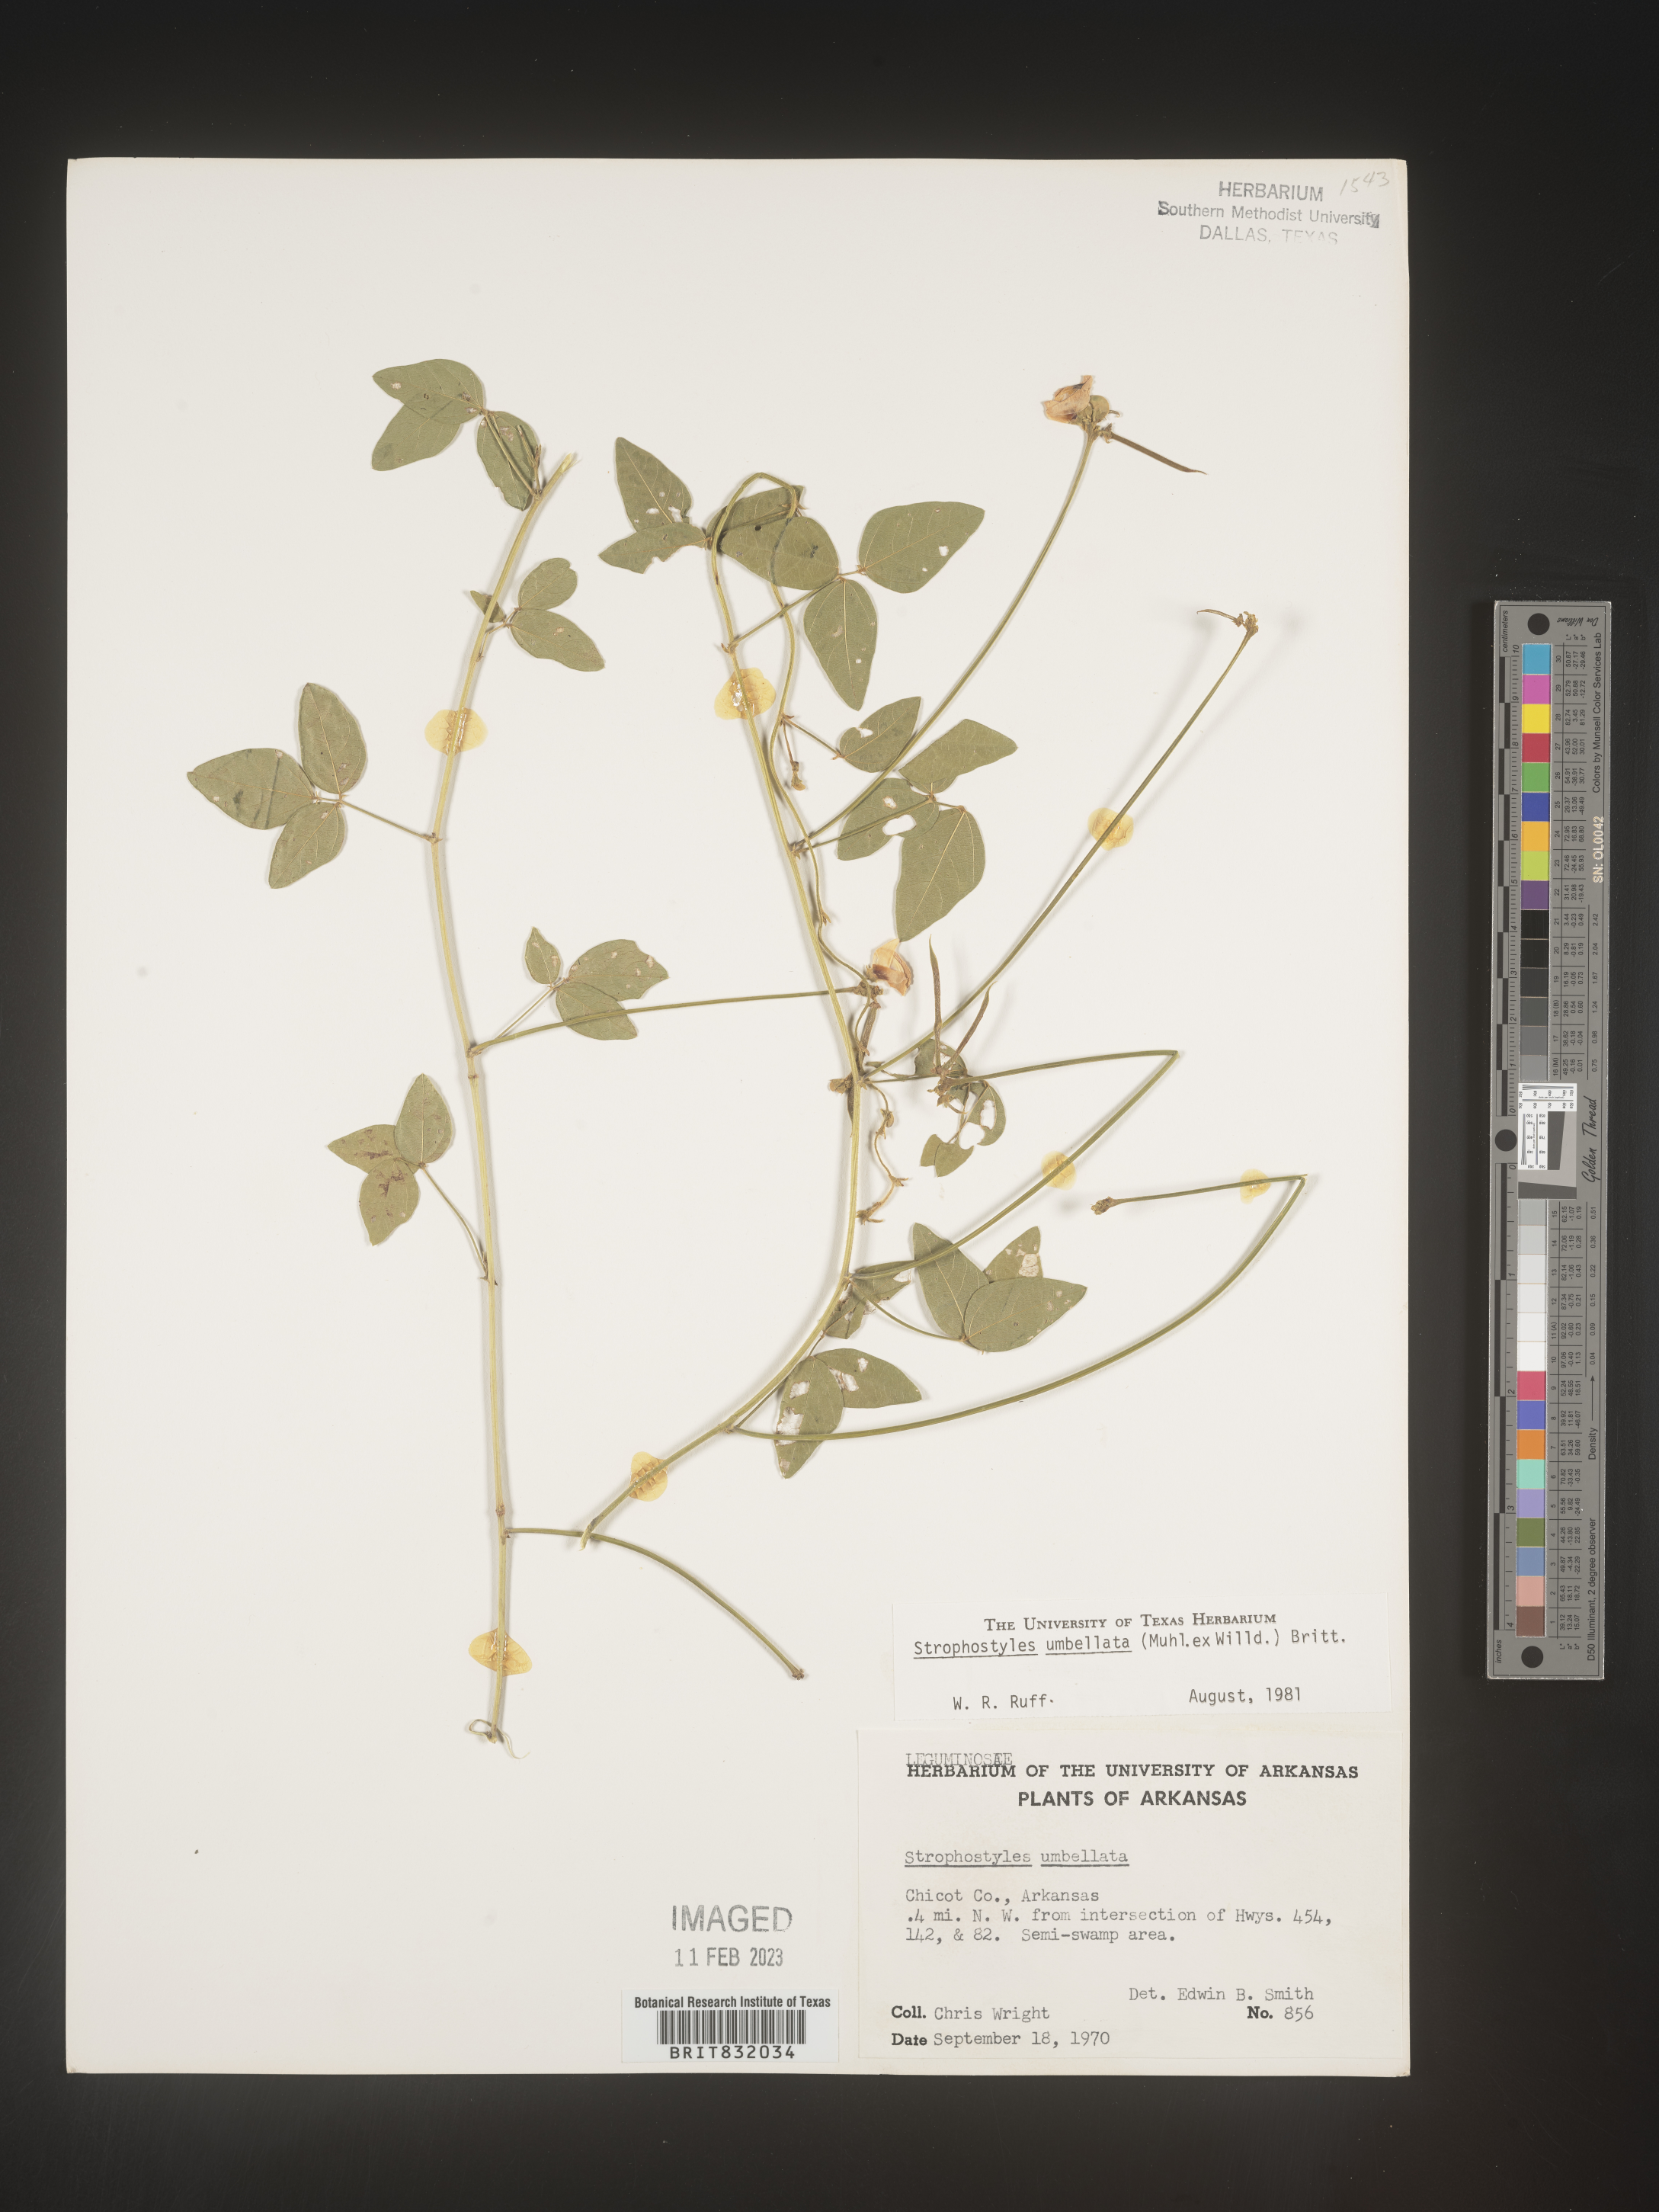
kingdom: Plantae
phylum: Tracheophyta
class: Magnoliopsida
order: Fabales
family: Fabaceae
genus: Strophostyles
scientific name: Strophostyles umbellata
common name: Perennial wild bean
